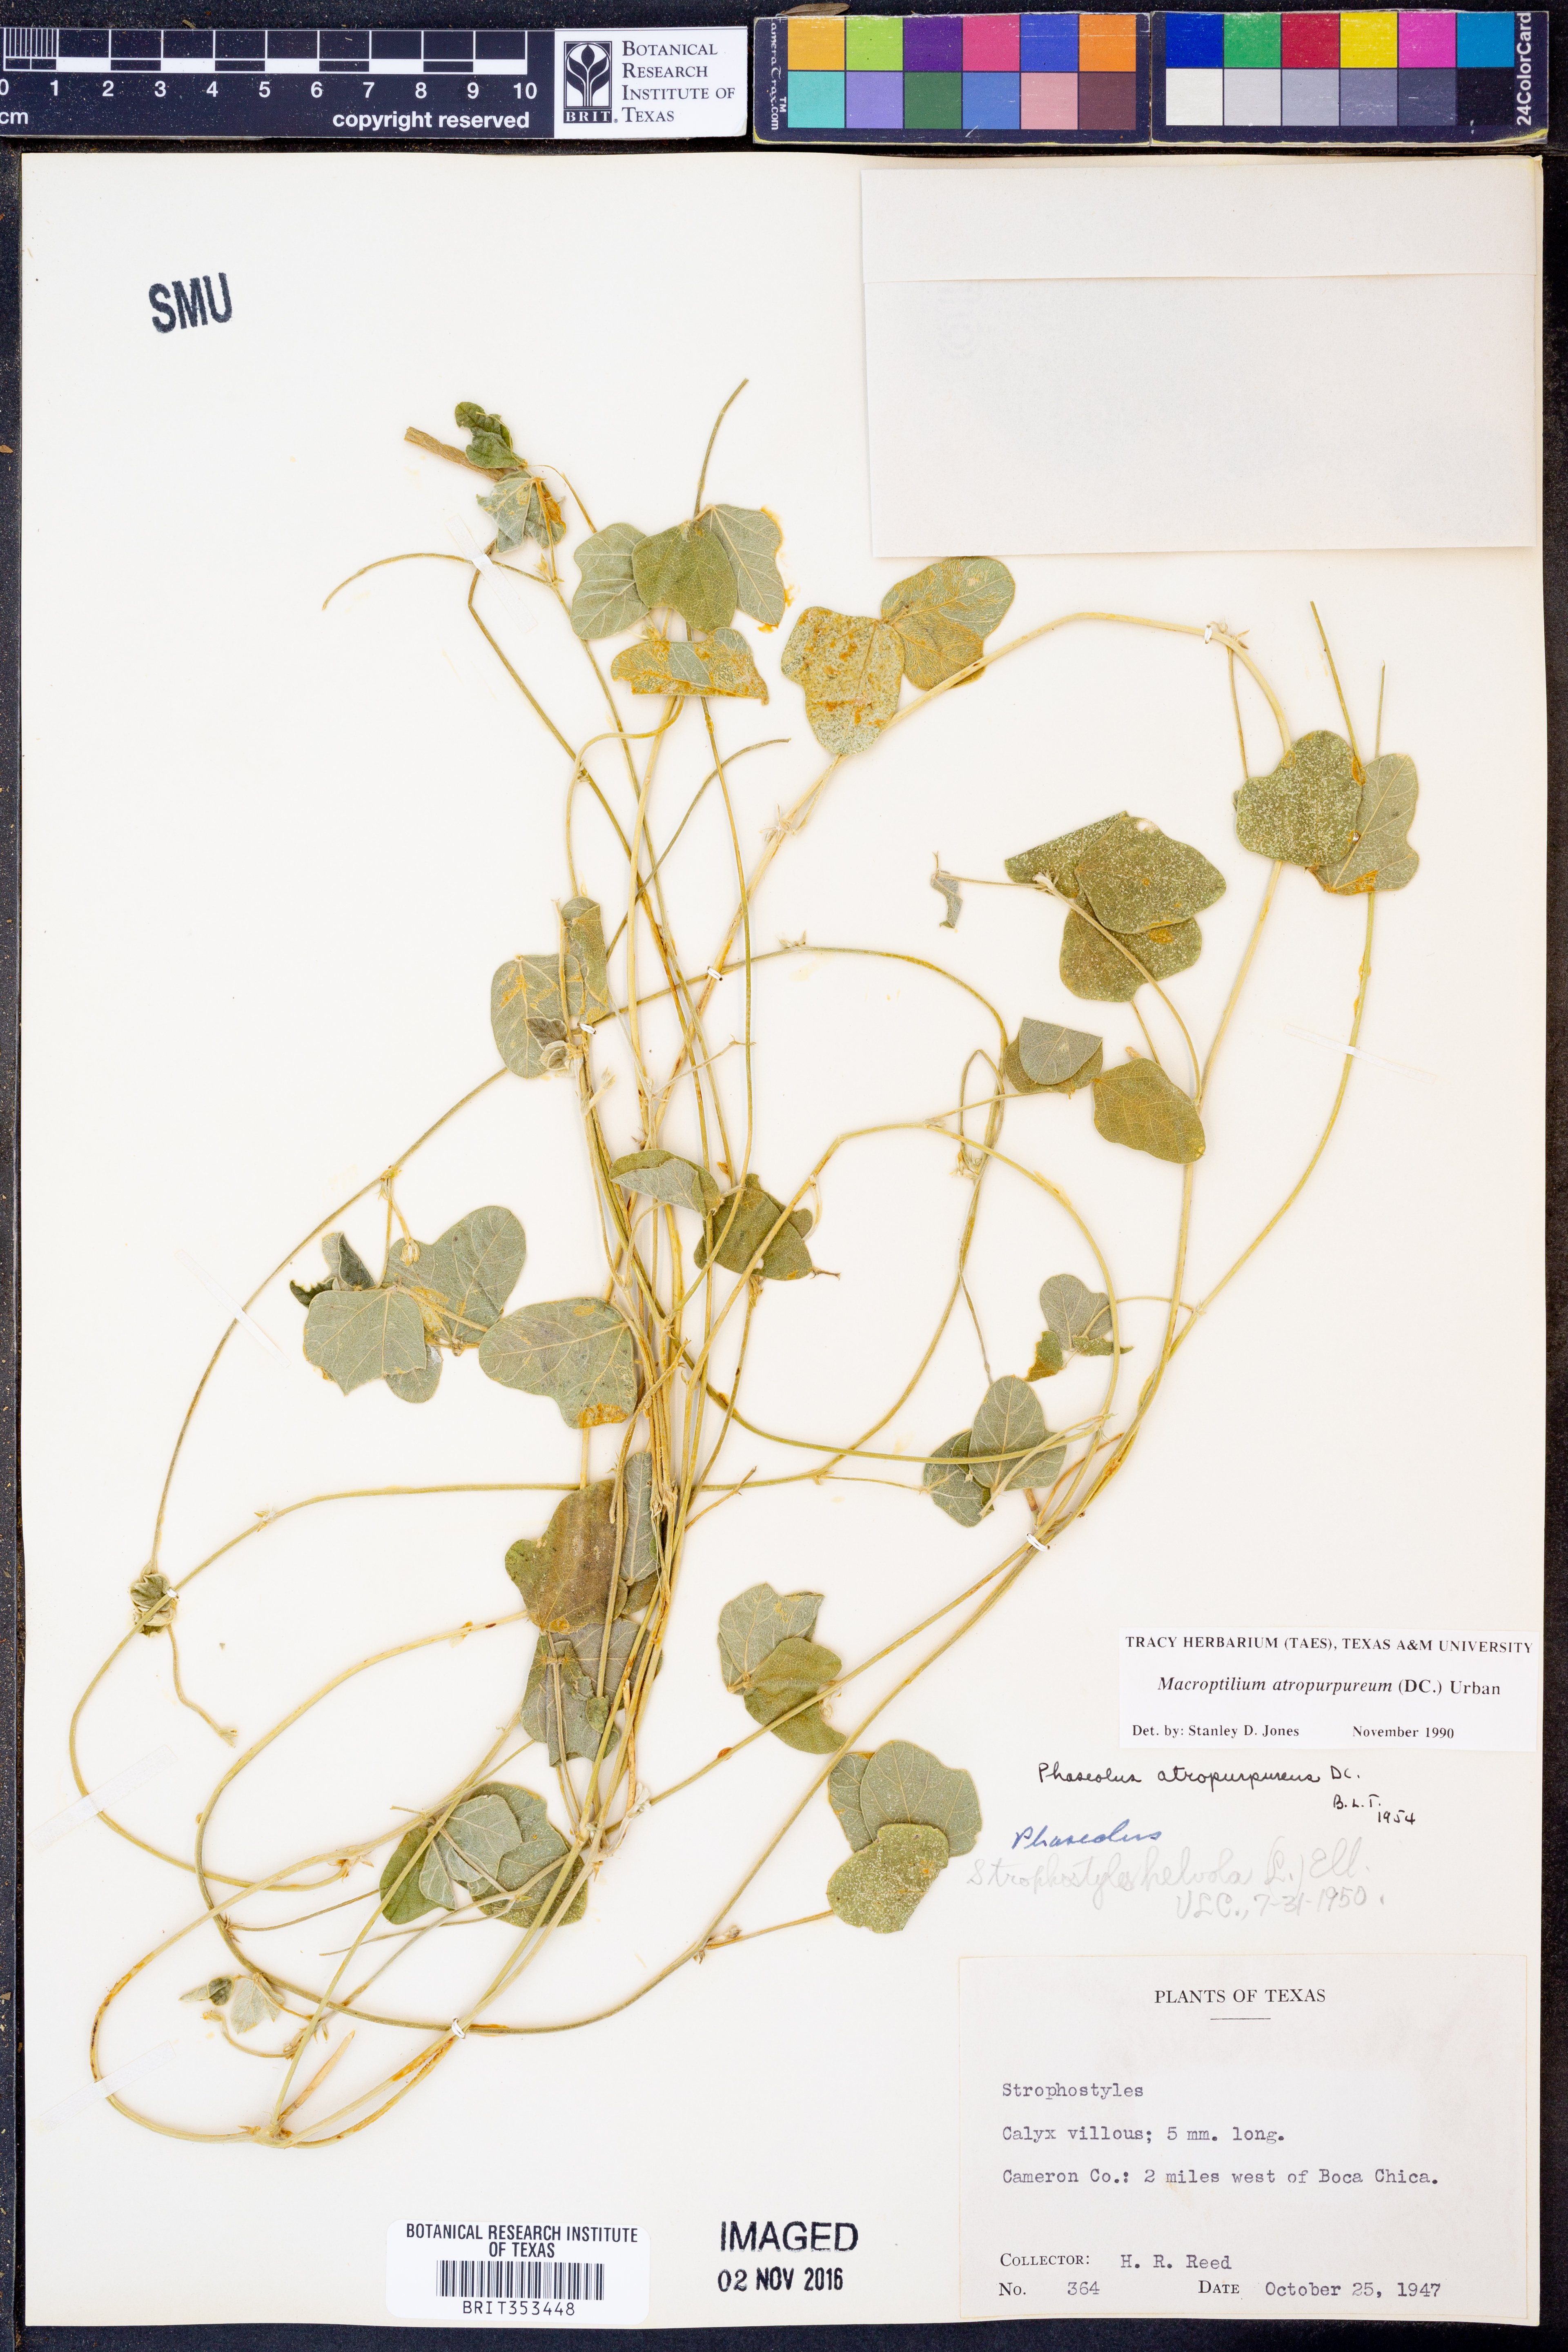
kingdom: Plantae
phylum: Tracheophyta
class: Magnoliopsida
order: Fabales
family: Fabaceae
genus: Macroptilium
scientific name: Macroptilium atropurpureum
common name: Purple bushbean
